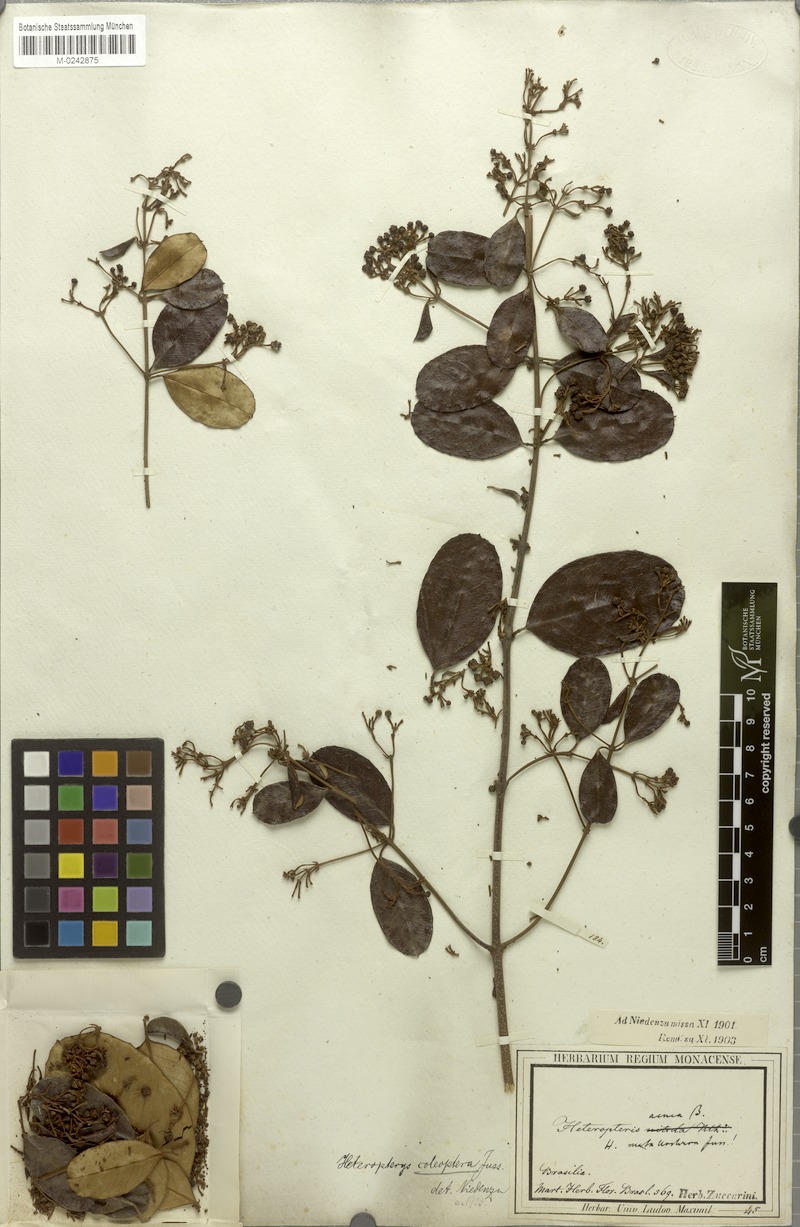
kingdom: Plantae
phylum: Tracheophyta
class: Magnoliopsida
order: Malpighiales
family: Malpighiaceae
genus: Heteropterys
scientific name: Heteropterys coleoptera
